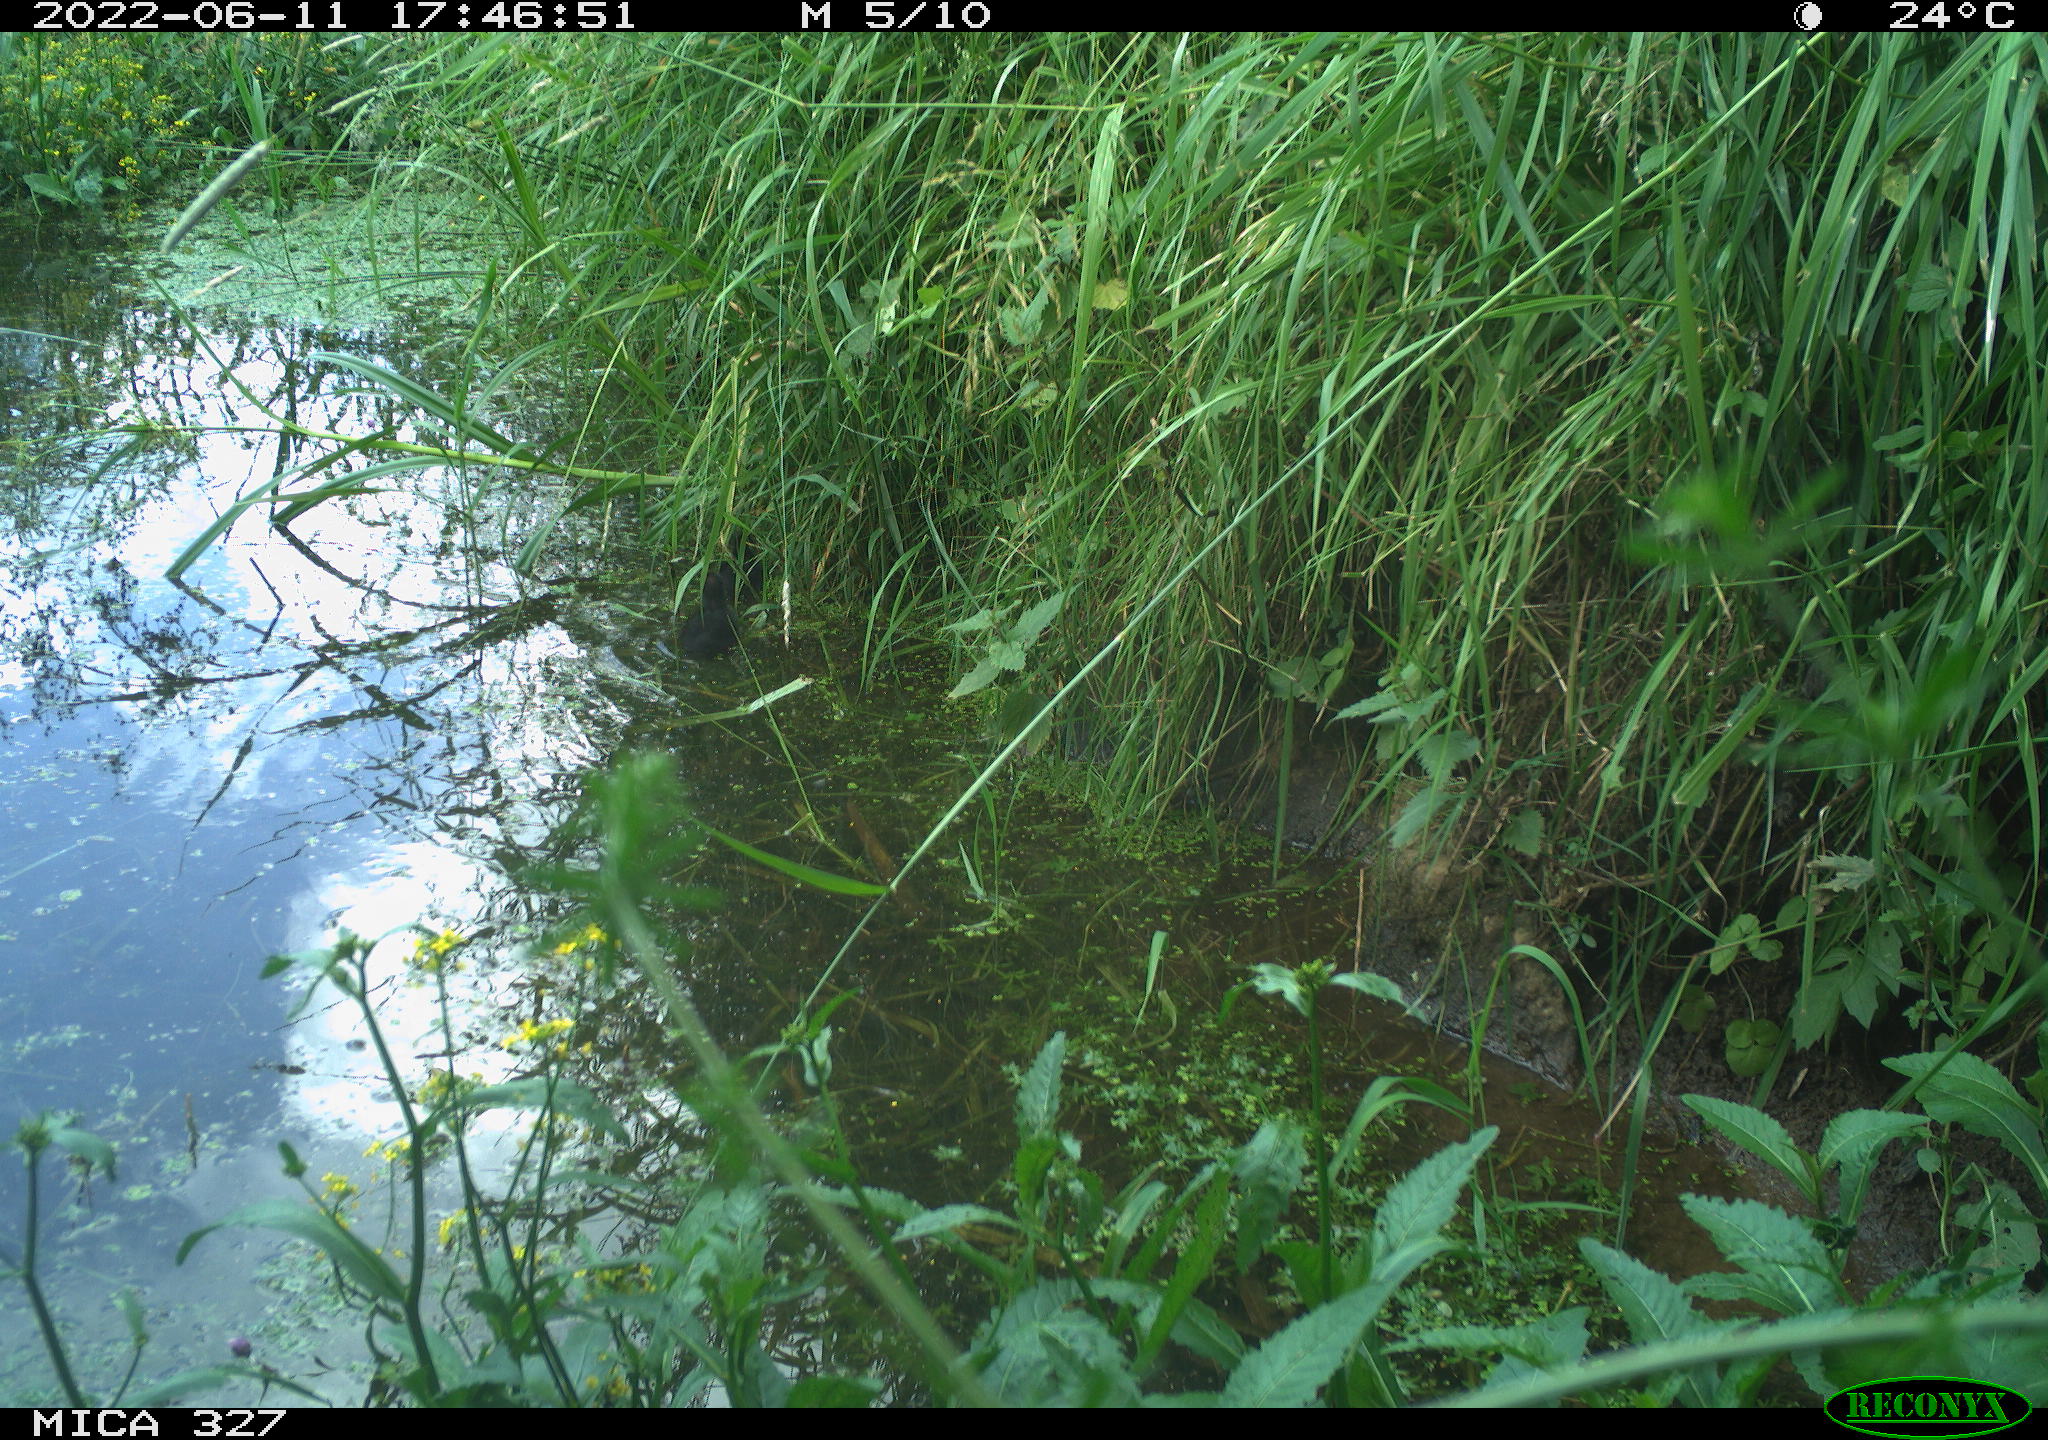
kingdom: Animalia
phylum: Chordata
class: Aves
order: Gruiformes
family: Rallidae
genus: Gallinula
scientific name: Gallinula chloropus
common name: Common moorhen
